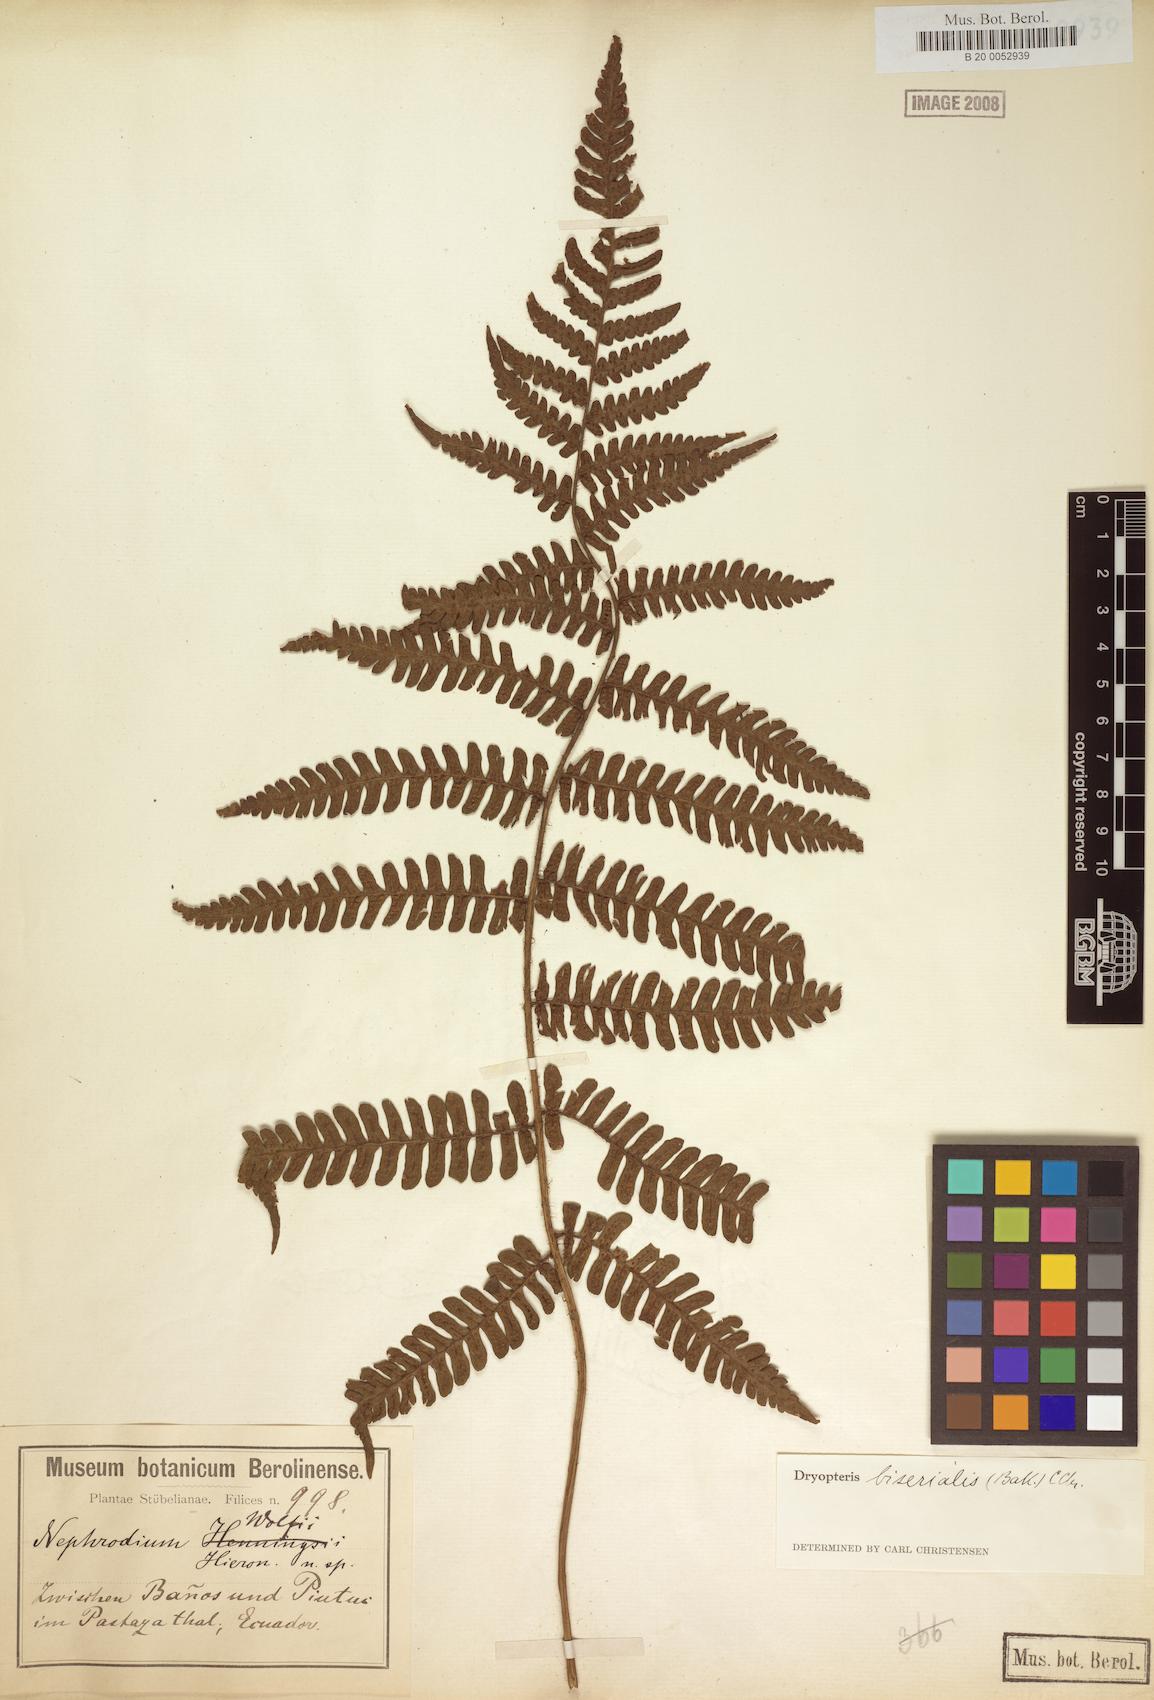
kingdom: Plantae
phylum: Tracheophyta
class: Polypodiopsida
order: Polypodiales
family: Dryopteridaceae
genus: Megalastrum
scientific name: Megalastrum biseriale
